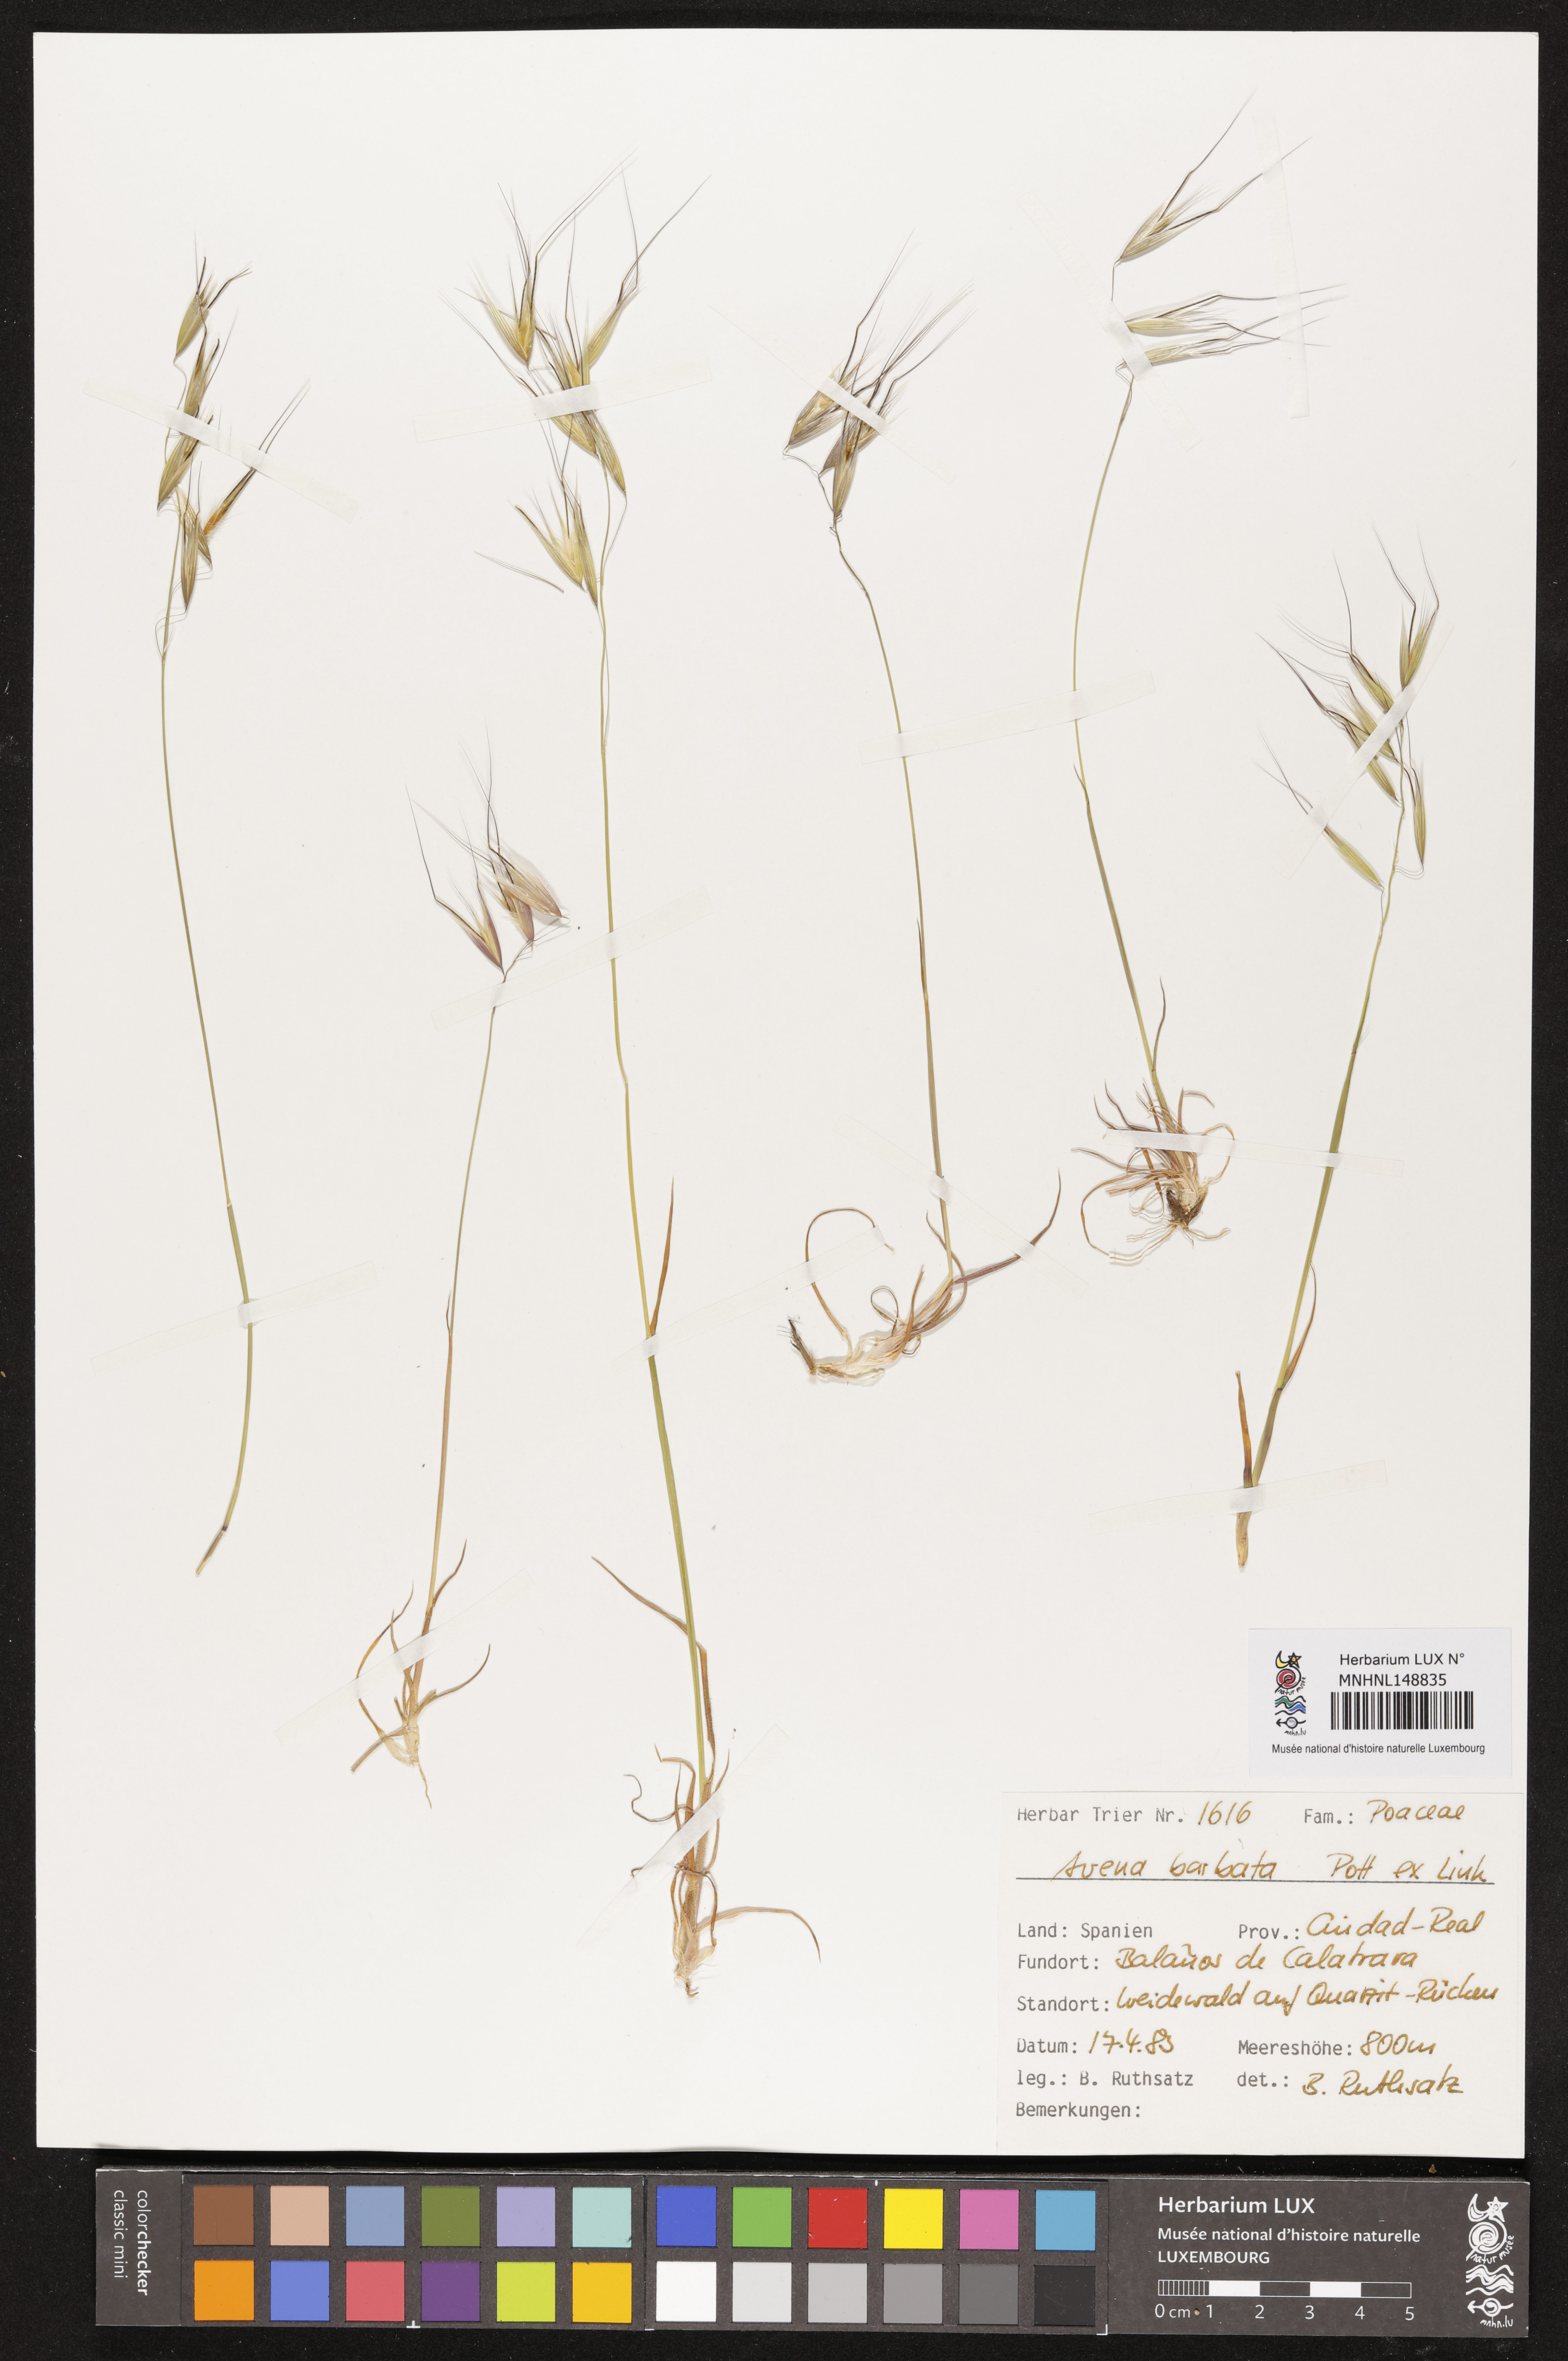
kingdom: Plantae
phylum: Tracheophyta
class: Liliopsida
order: Poales
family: Poaceae
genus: Avena
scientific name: Avena barbata
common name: Slender oat
